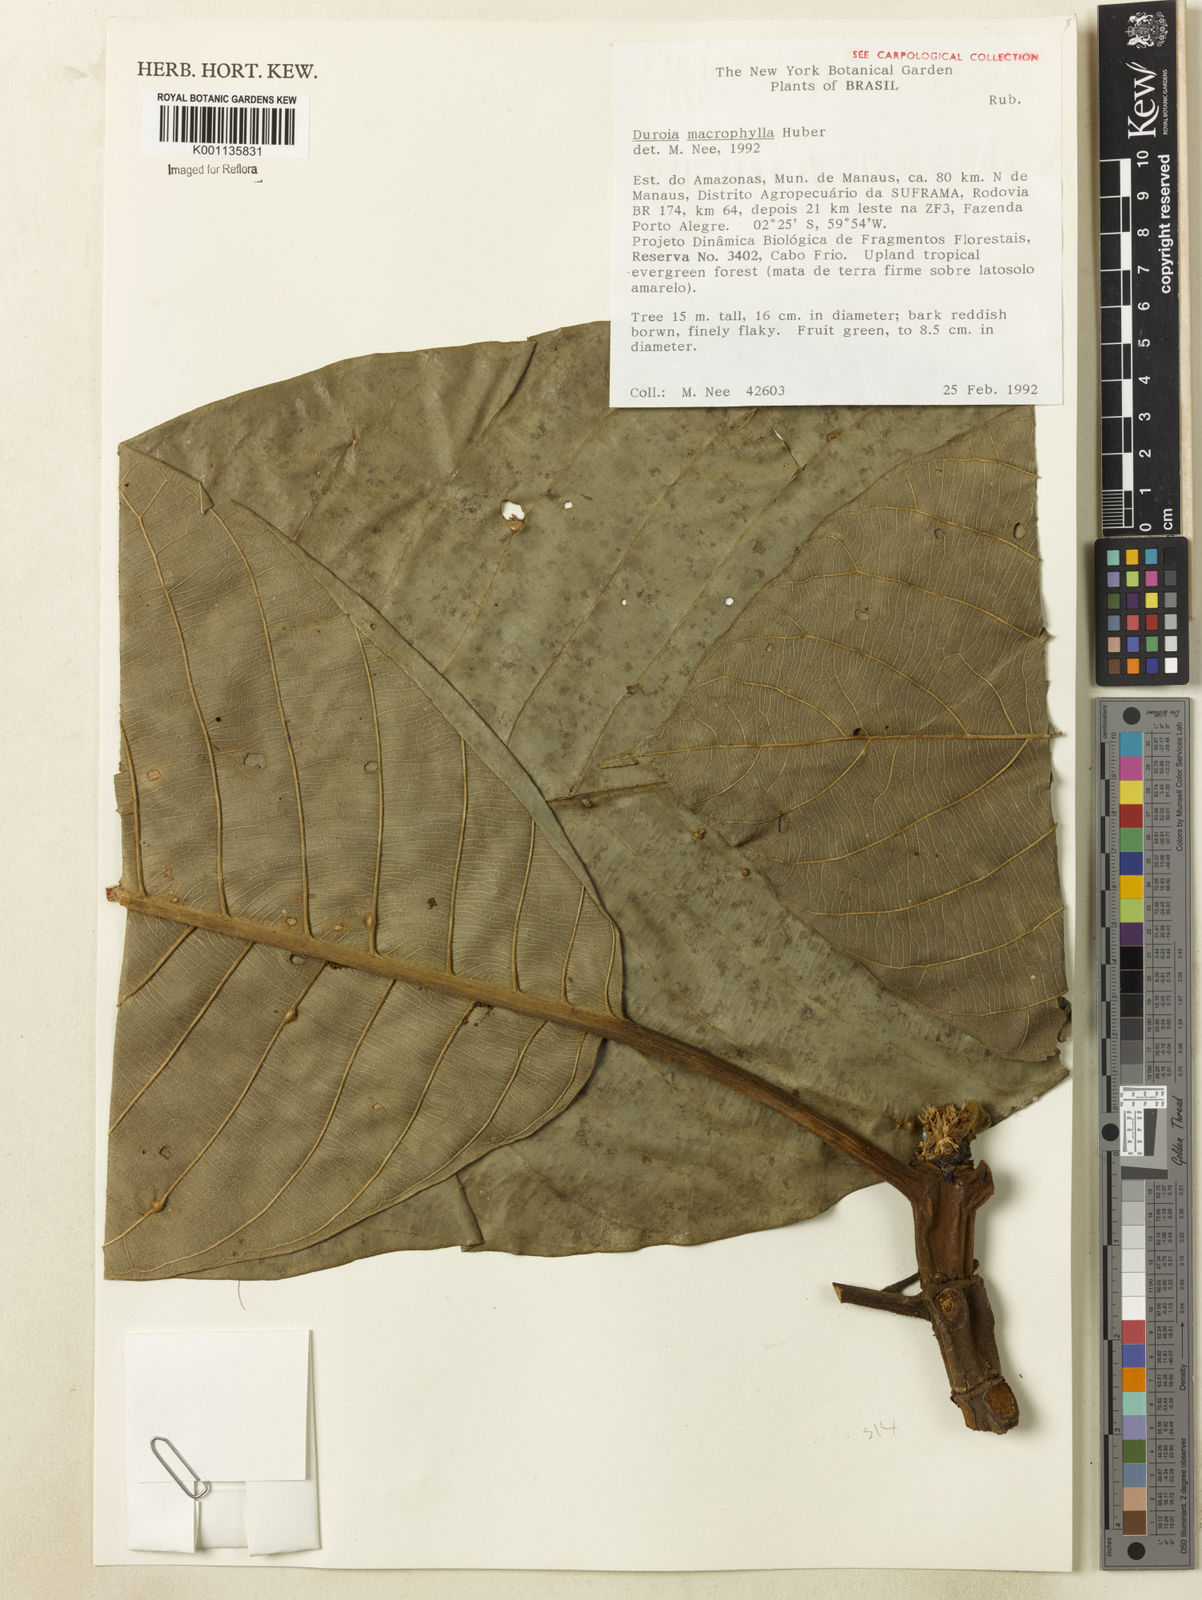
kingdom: Plantae
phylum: Tracheophyta
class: Magnoliopsida
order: Gentianales
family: Rubiaceae
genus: Duroia
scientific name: Duroia macrophylla
